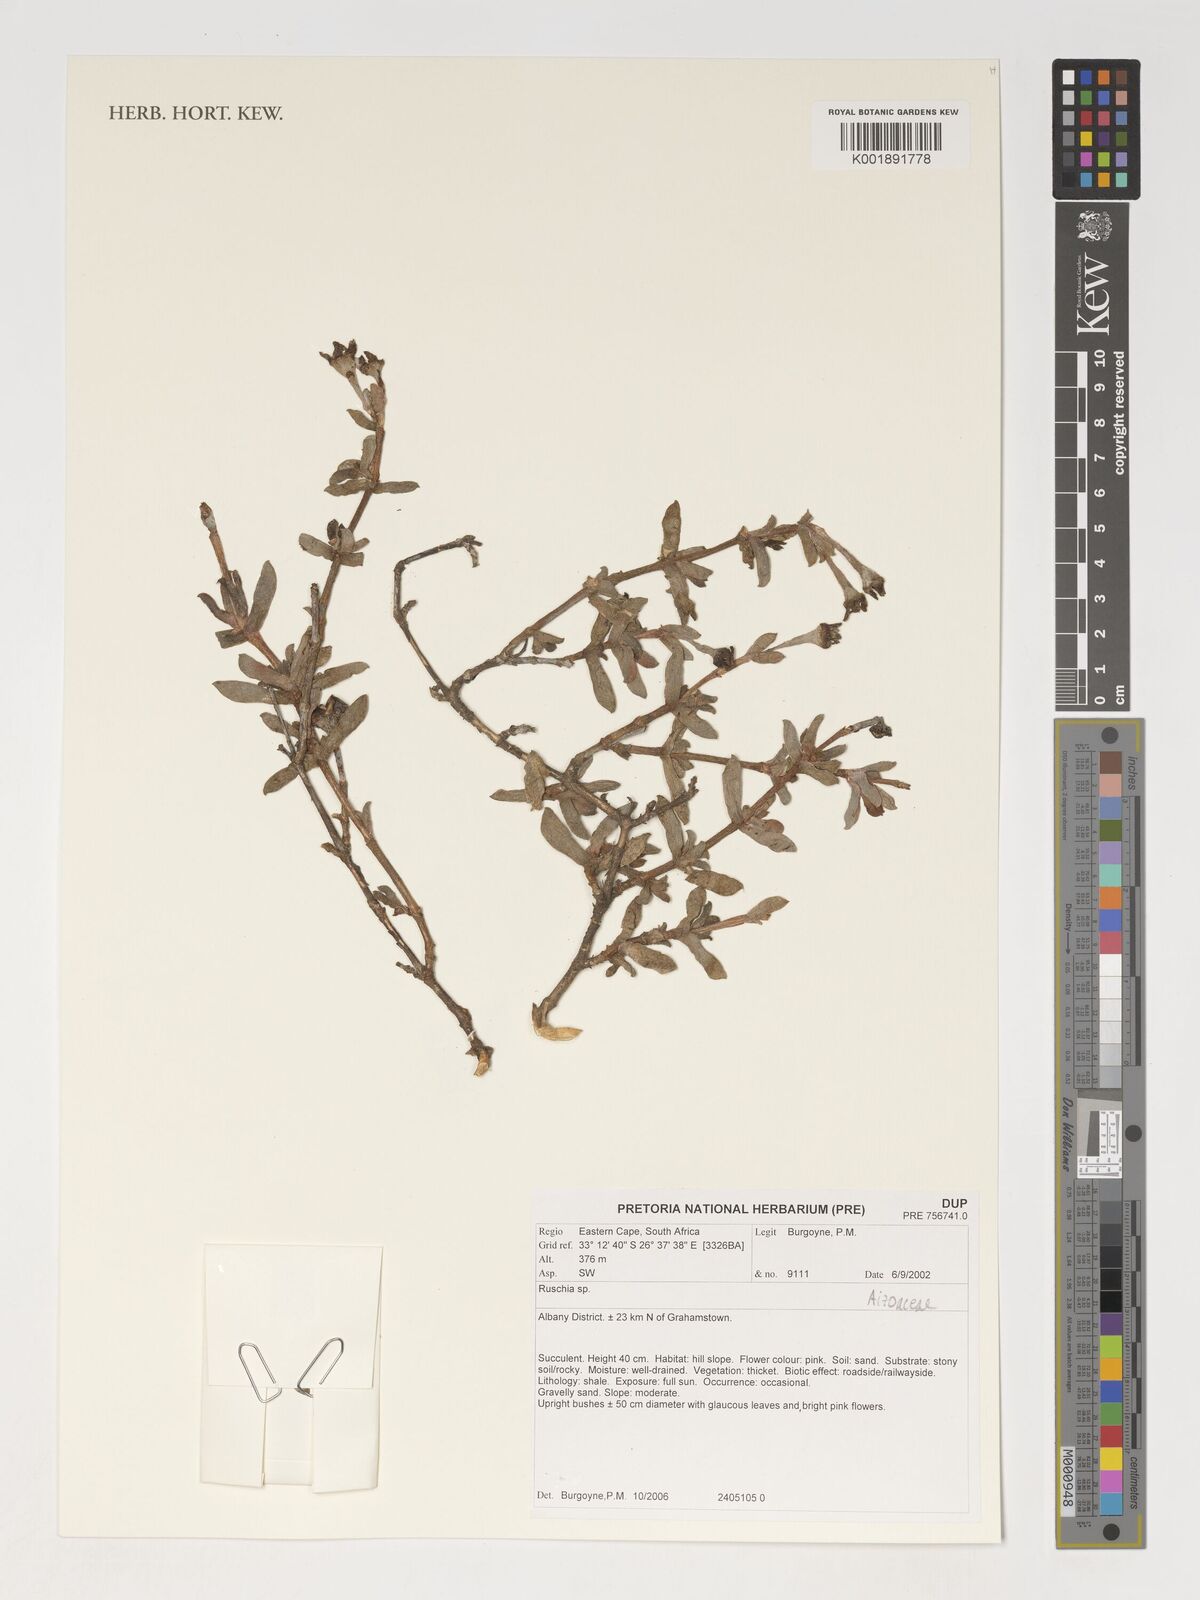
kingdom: Plantae
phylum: Tracheophyta
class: Magnoliopsida
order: Caryophyllales
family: Aizoaceae
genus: Ruschia
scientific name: Ruschia
